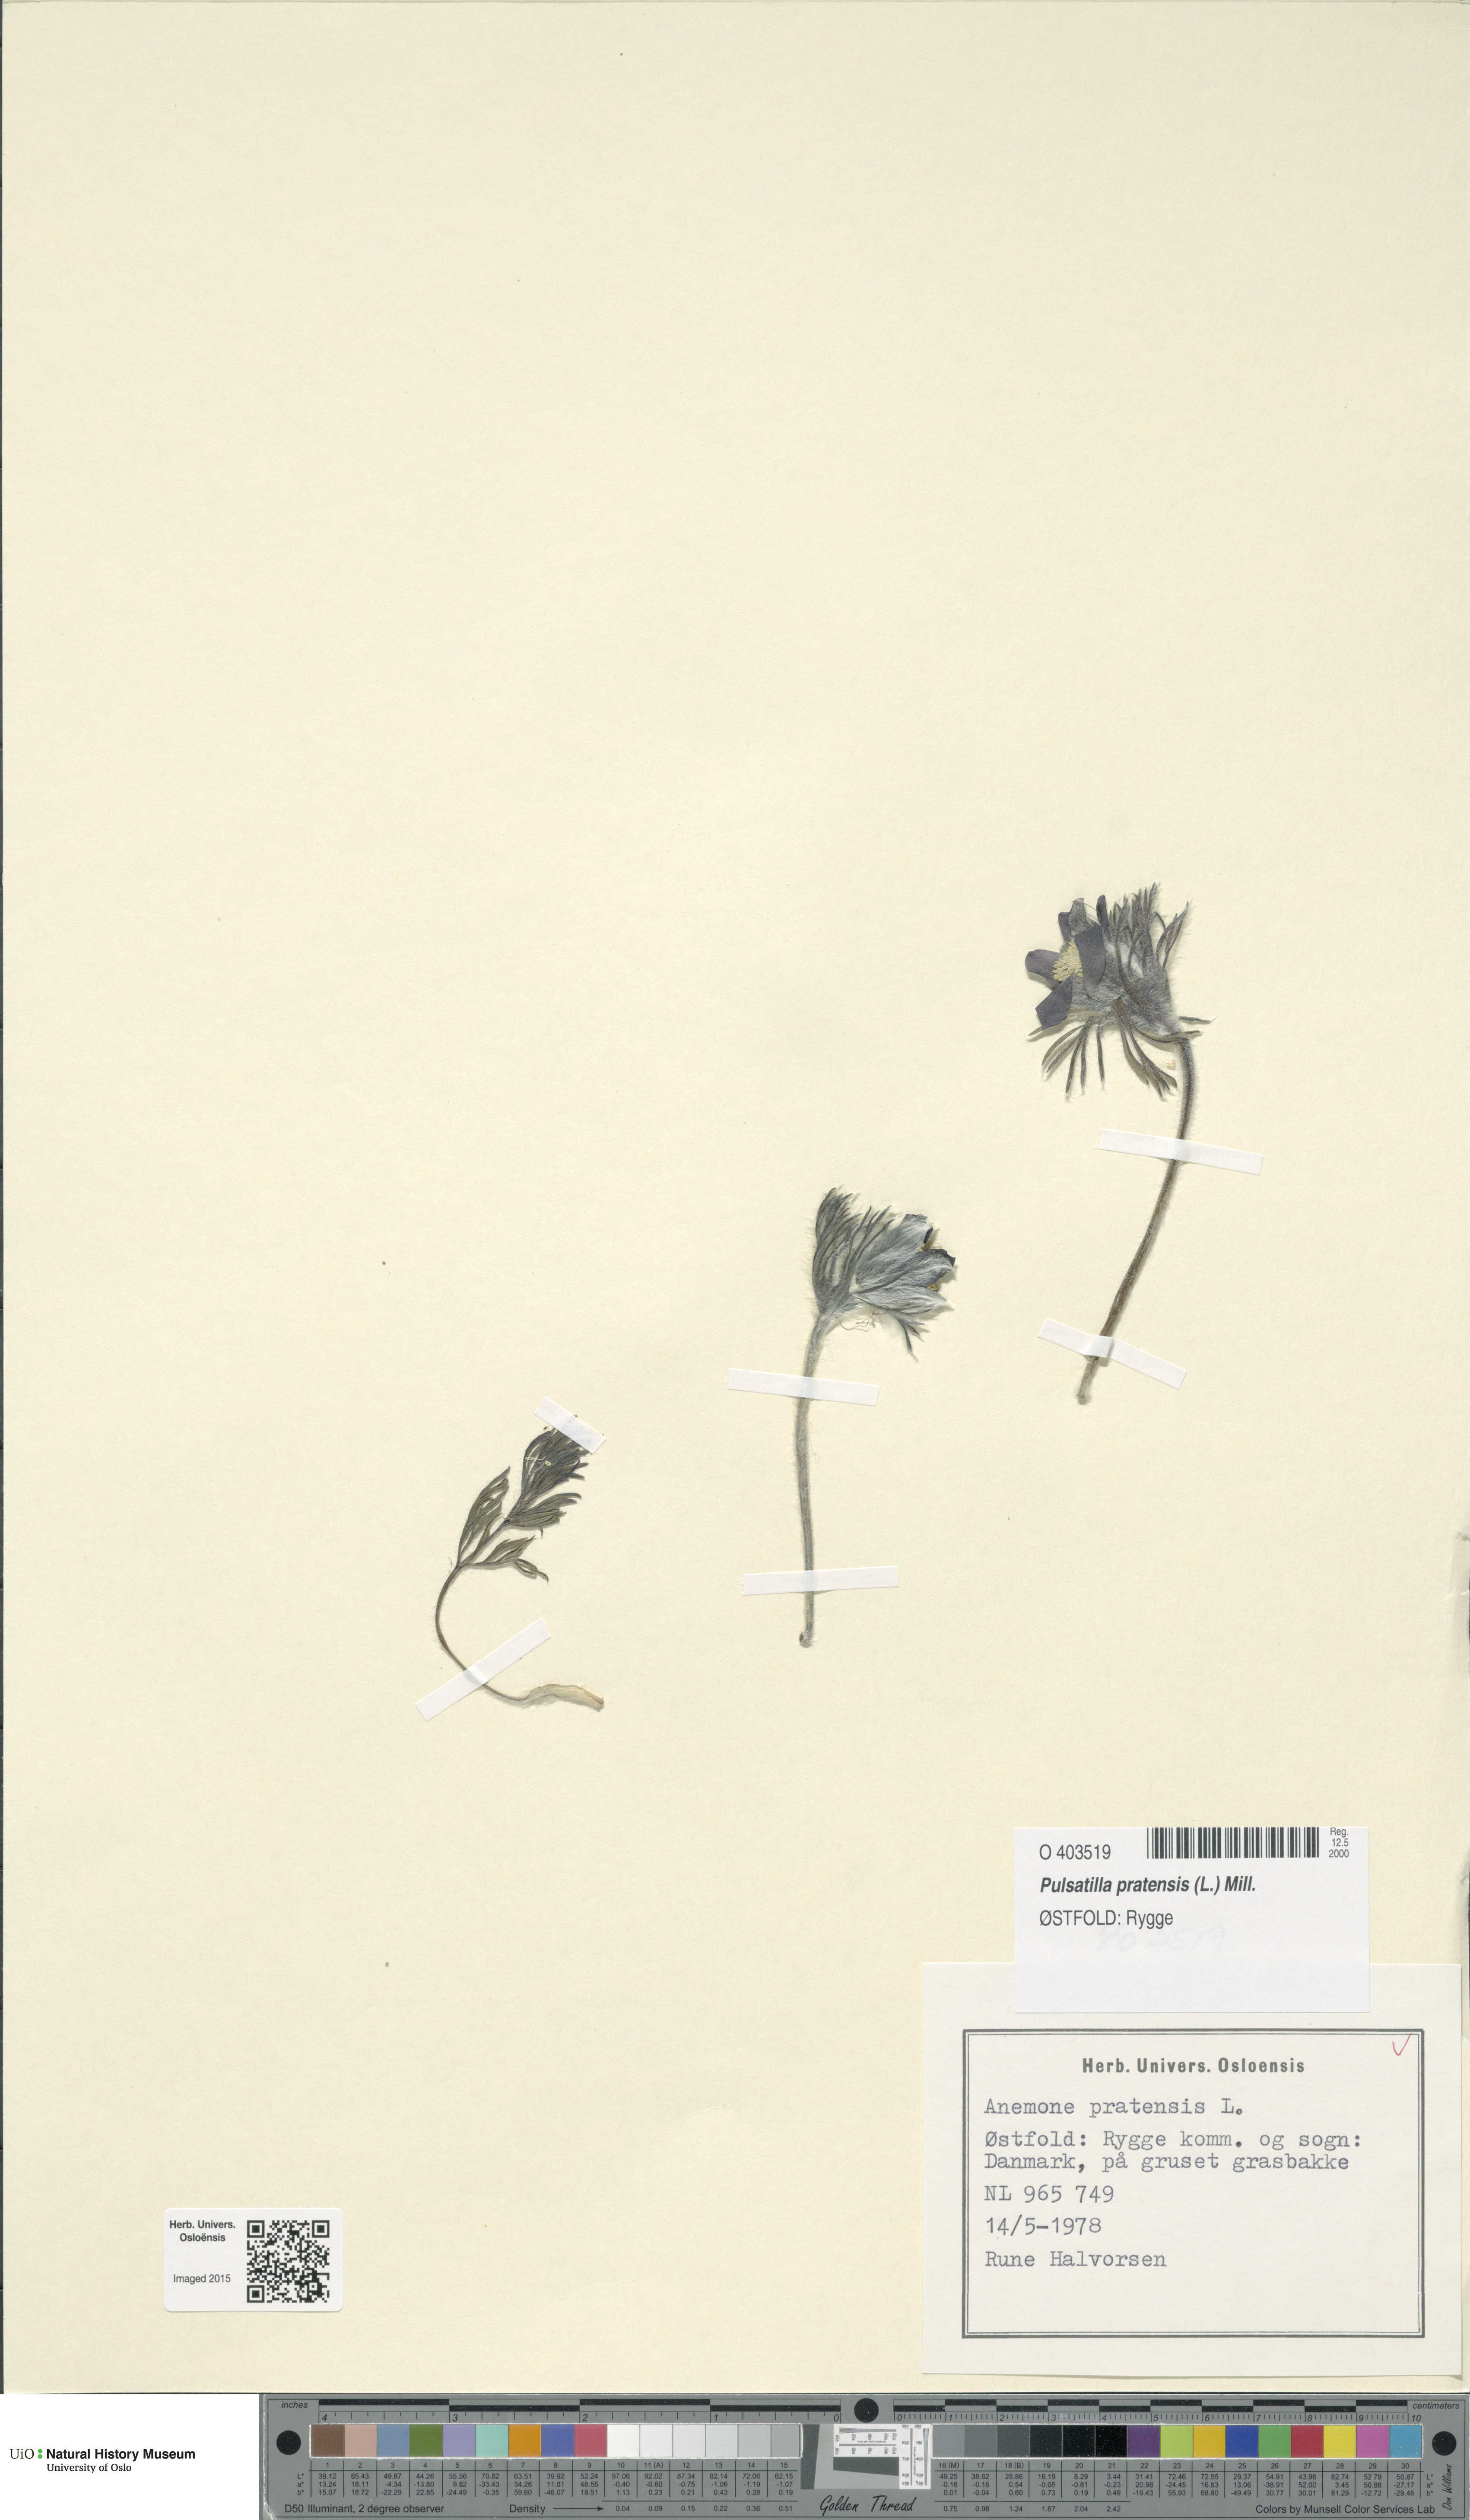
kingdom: Plantae
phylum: Tracheophyta
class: Magnoliopsida
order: Ranunculales
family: Ranunculaceae
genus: Pulsatilla
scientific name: Pulsatilla pratensis
